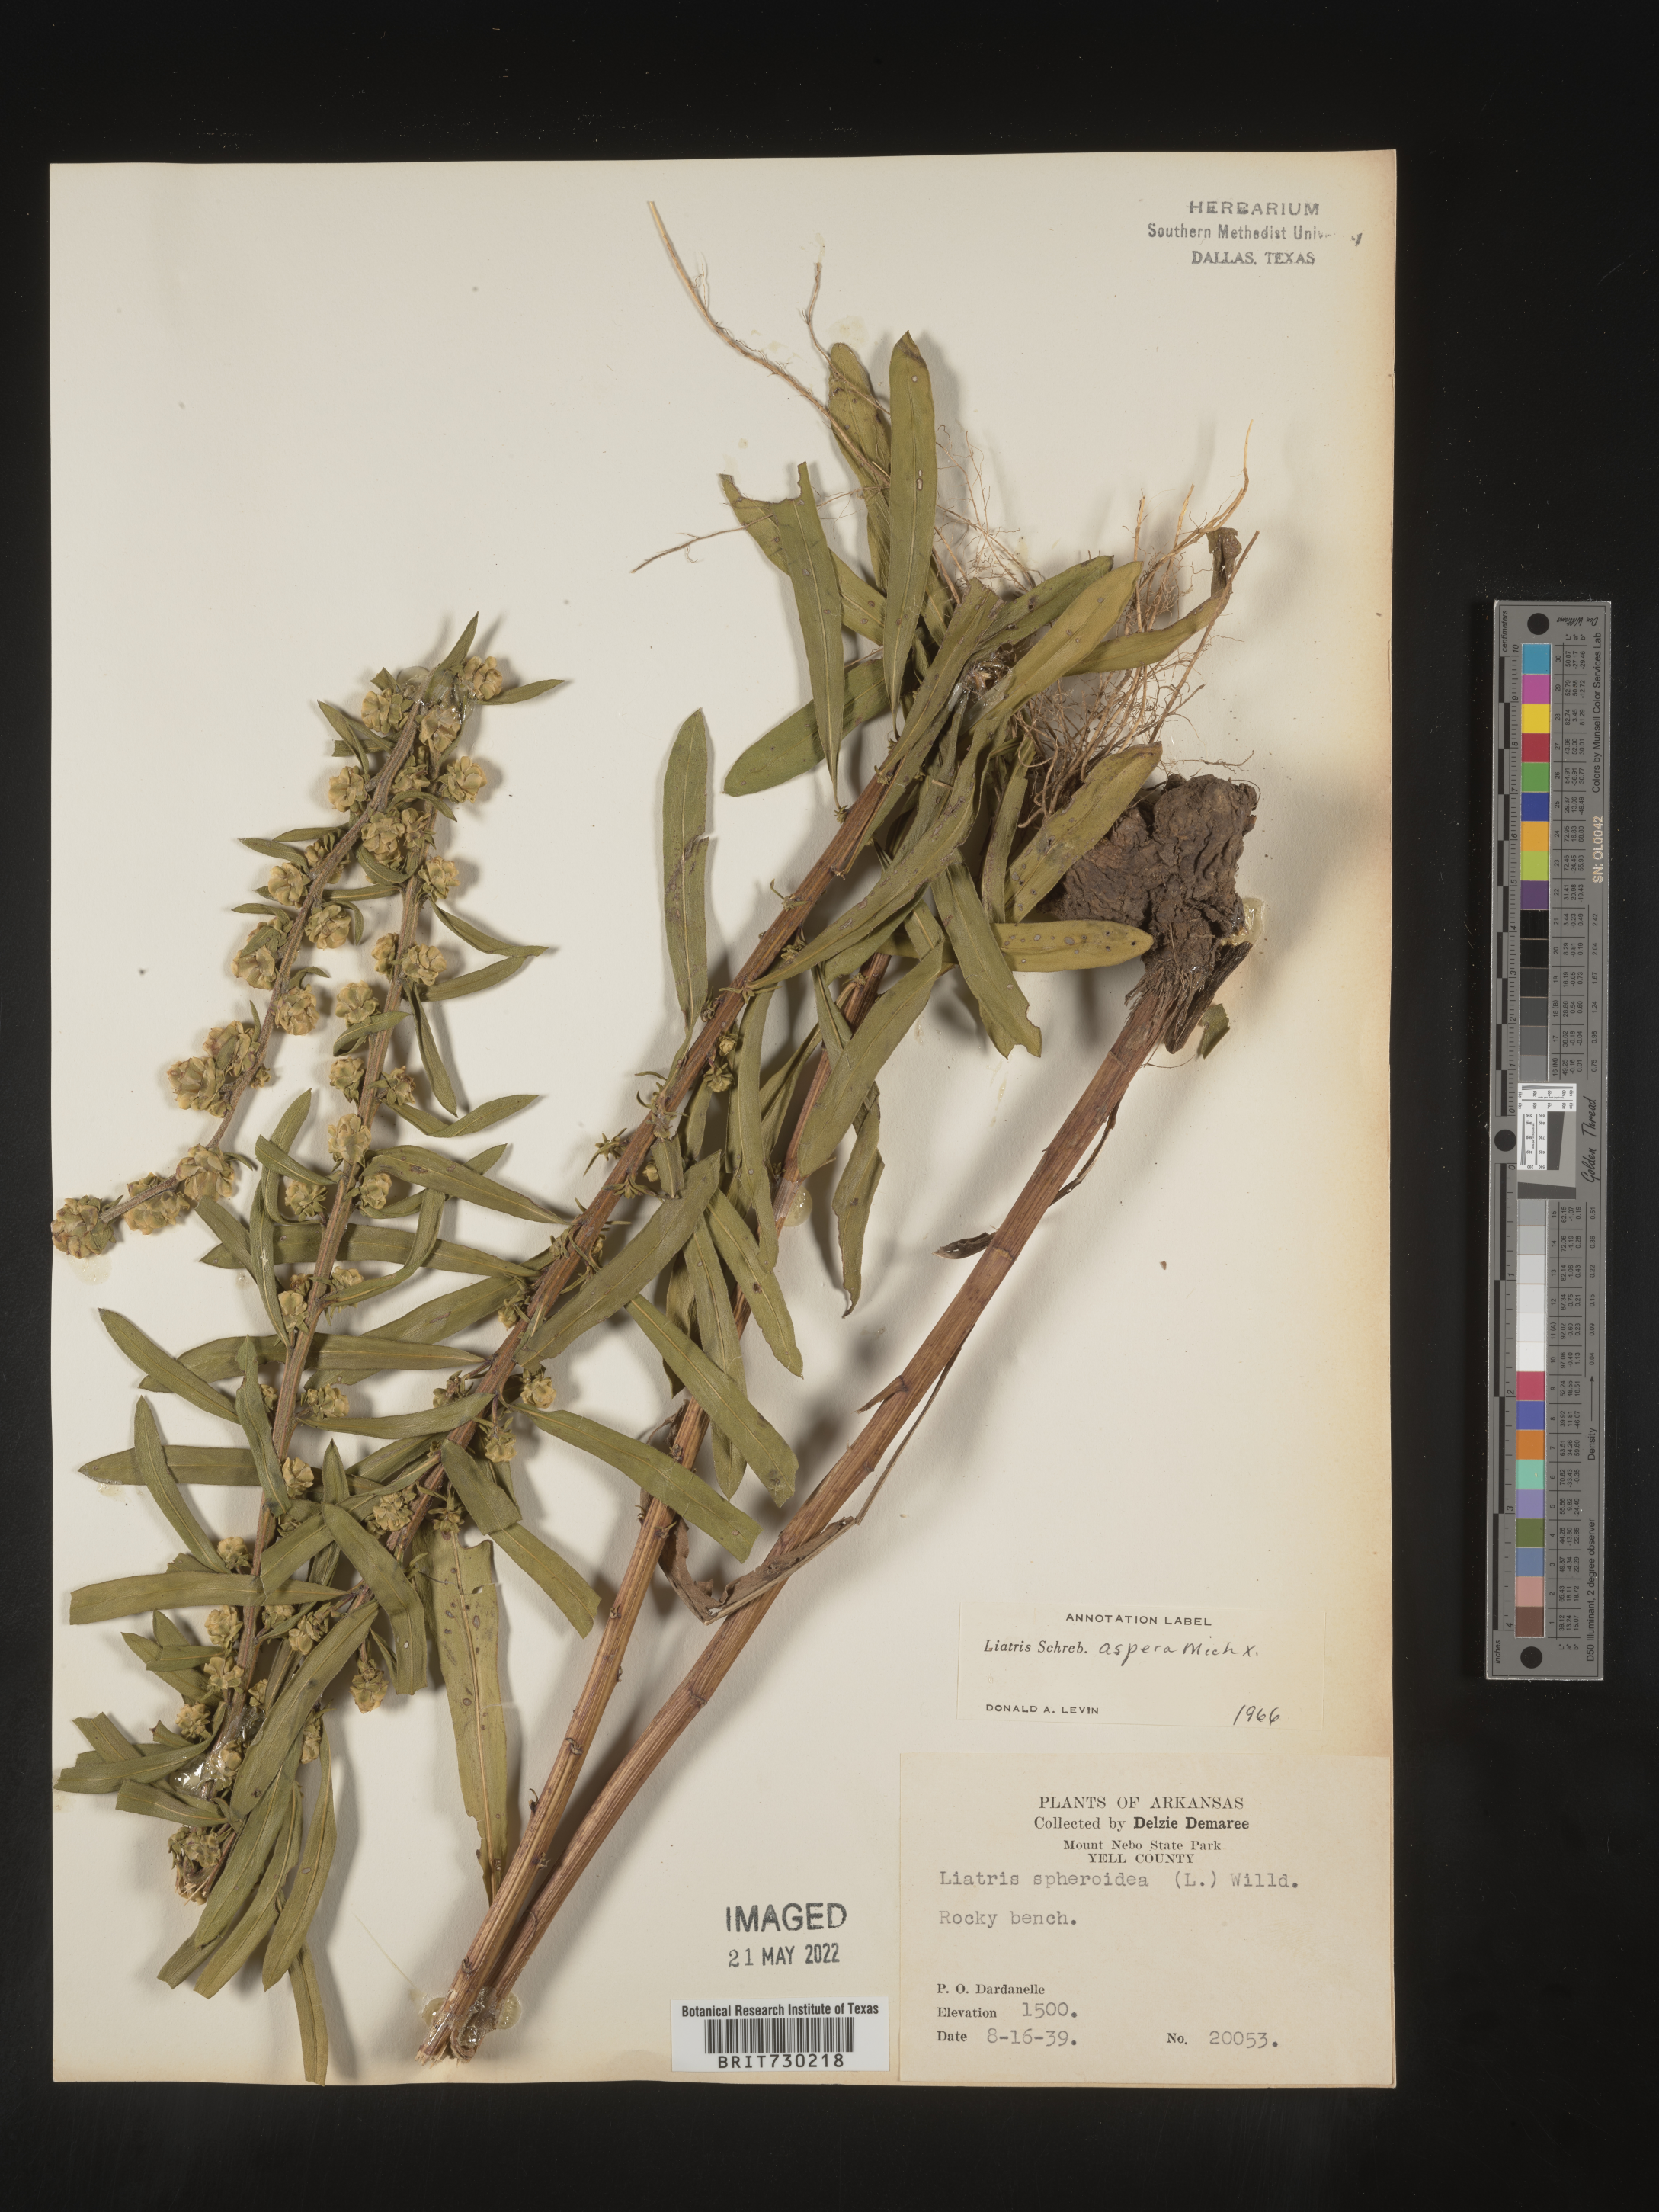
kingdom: Plantae
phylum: Tracheophyta
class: Magnoliopsida
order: Asterales
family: Asteraceae
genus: Liatris
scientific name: Liatris aspera
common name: Lacerate blazing-star
